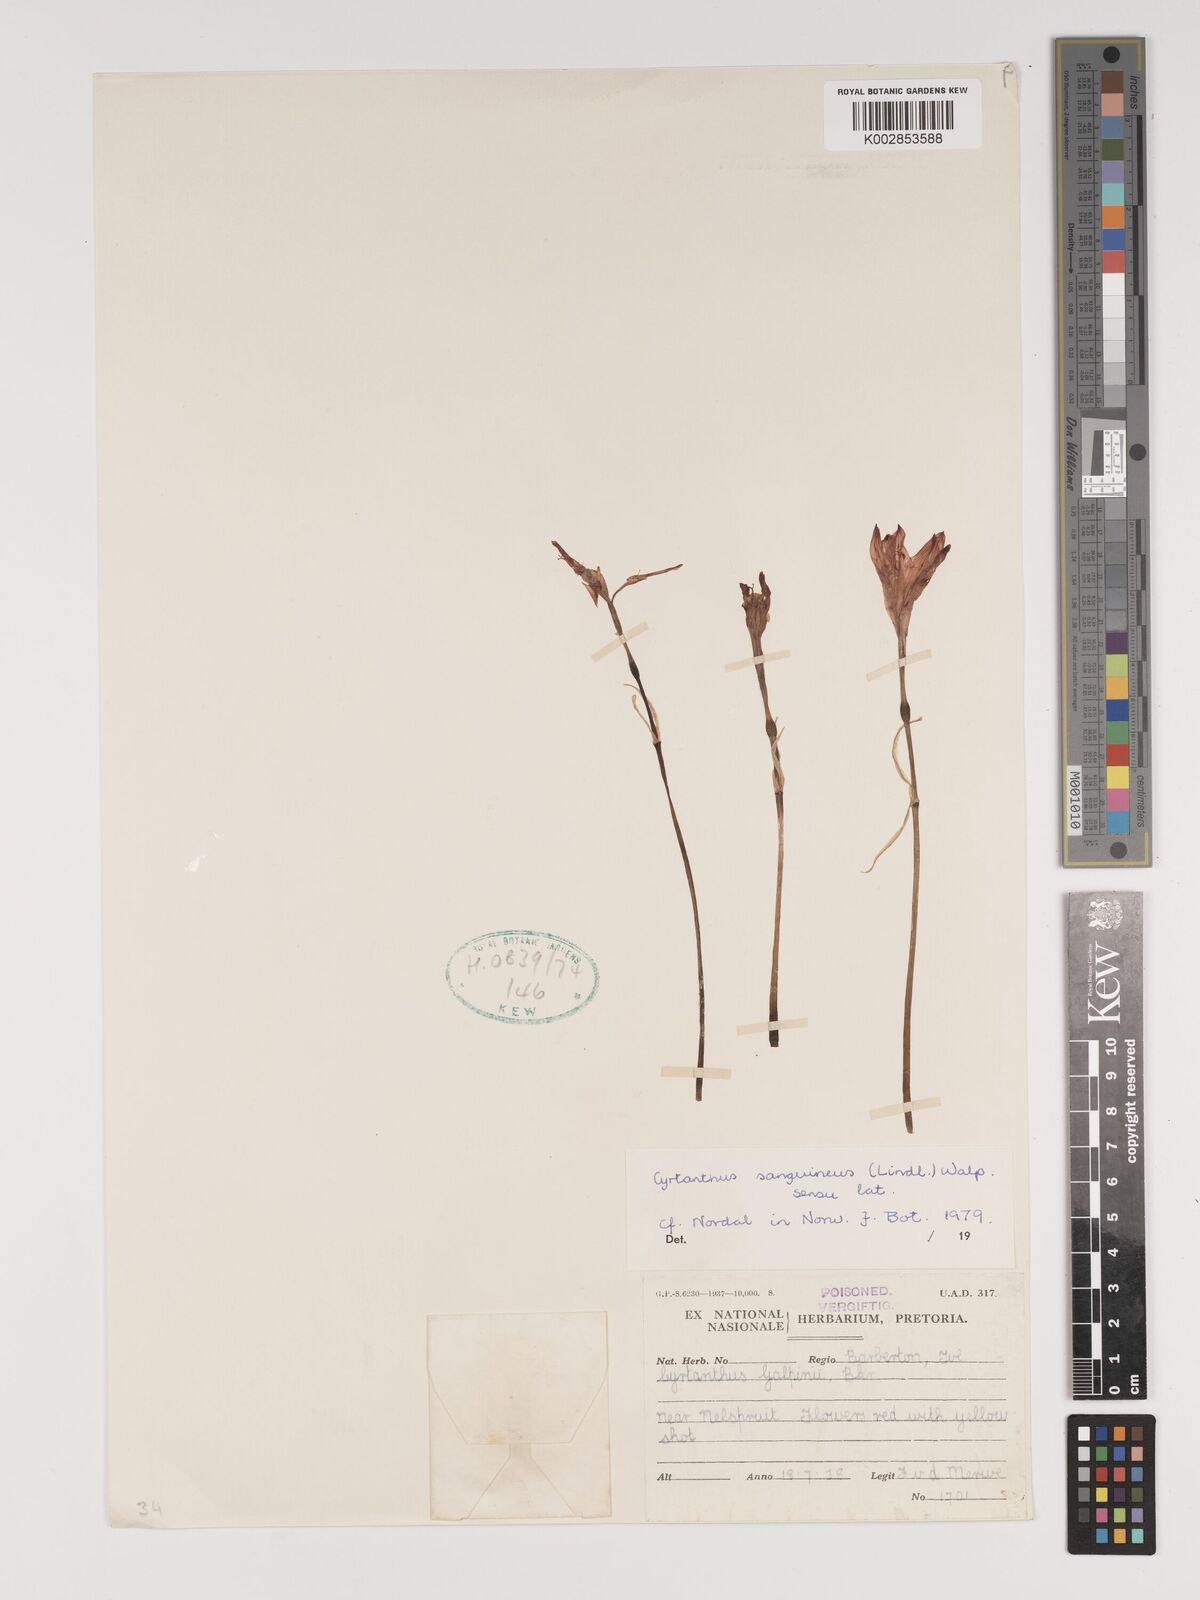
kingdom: Plantae
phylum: Tracheophyta
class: Liliopsida
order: Asparagales
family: Amaryllidaceae
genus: Cyrtanthus
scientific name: Cyrtanthus sanguineus
